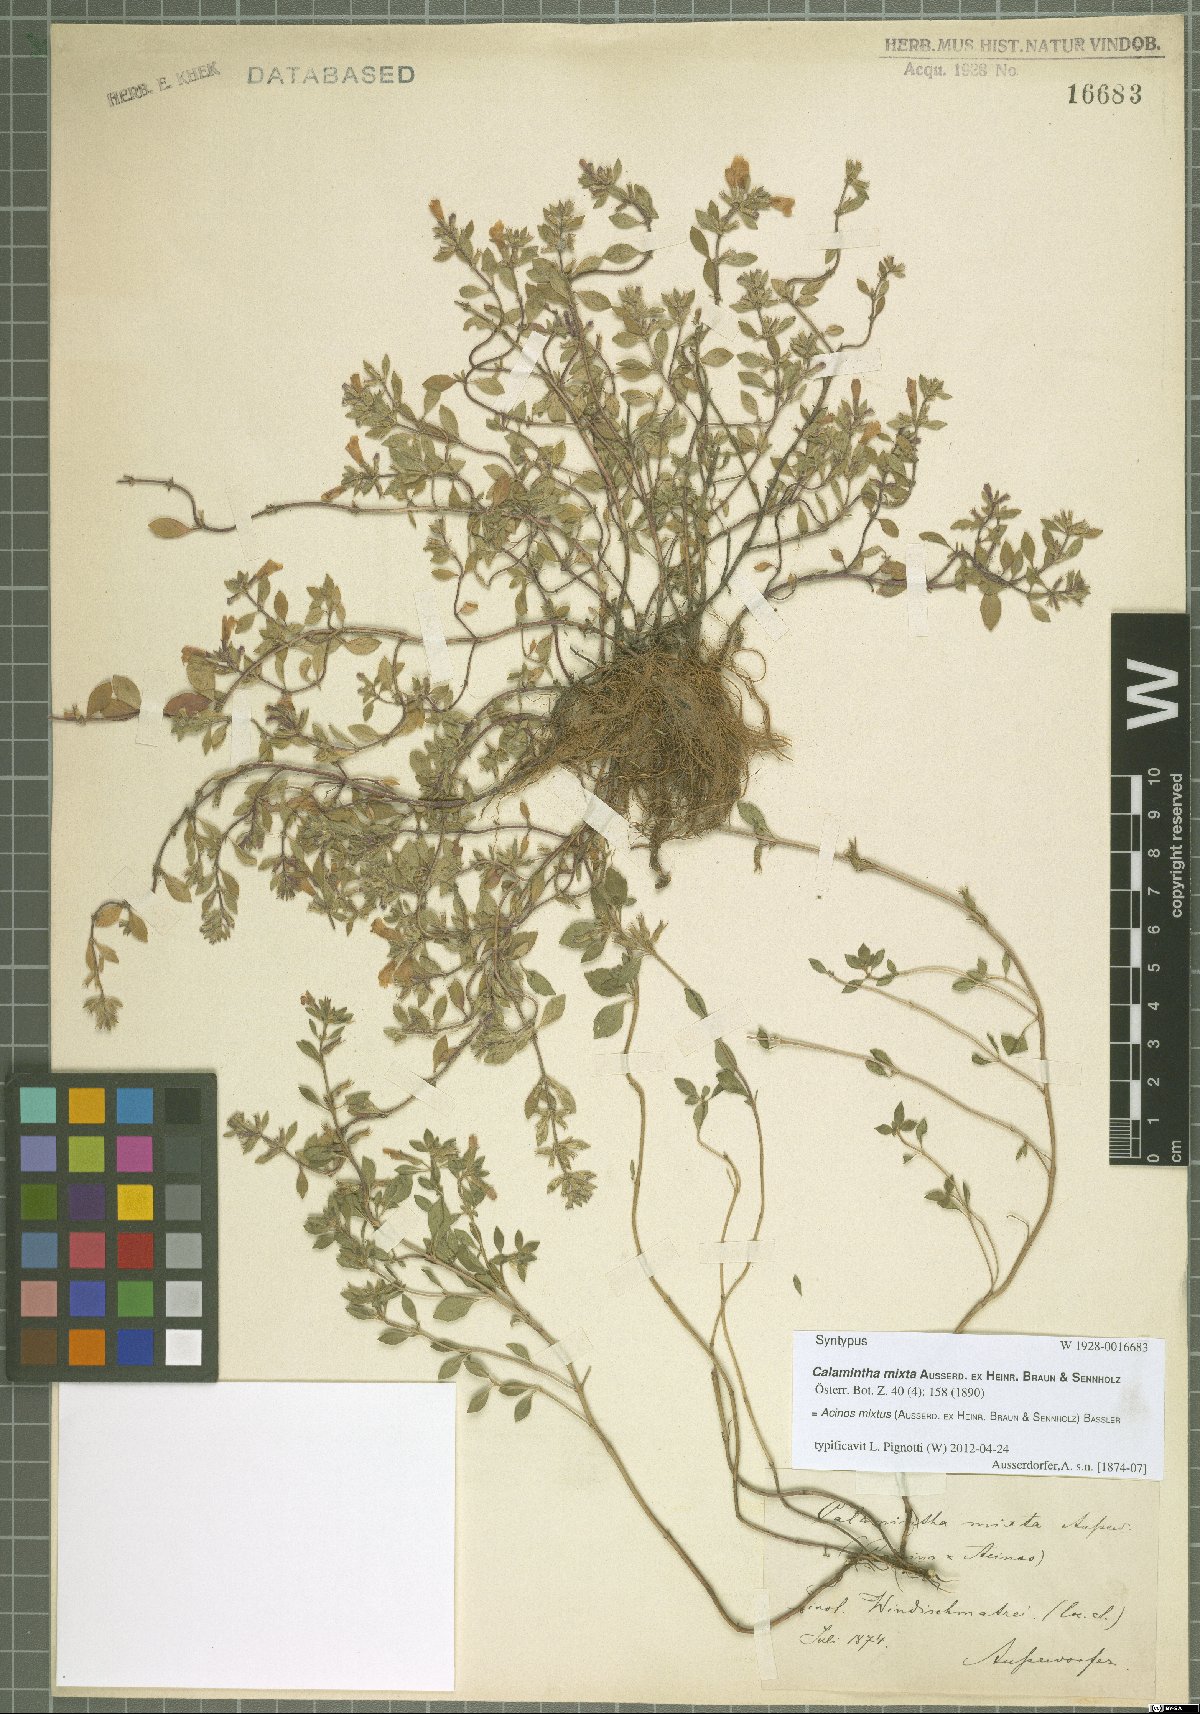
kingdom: Plantae
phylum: Tracheophyta
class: Magnoliopsida
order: Lamiales
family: Lamiaceae
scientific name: Lamiaceae
